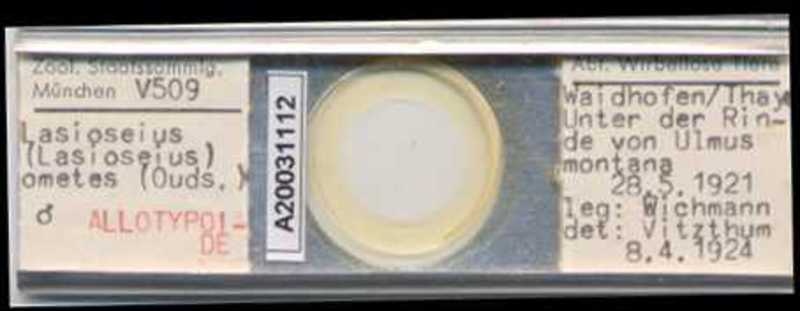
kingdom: Animalia
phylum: Arthropoda
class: Arachnida
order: Mesostigmata
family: Blattisociidae
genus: Lasioseius
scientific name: Lasioseius ometes
